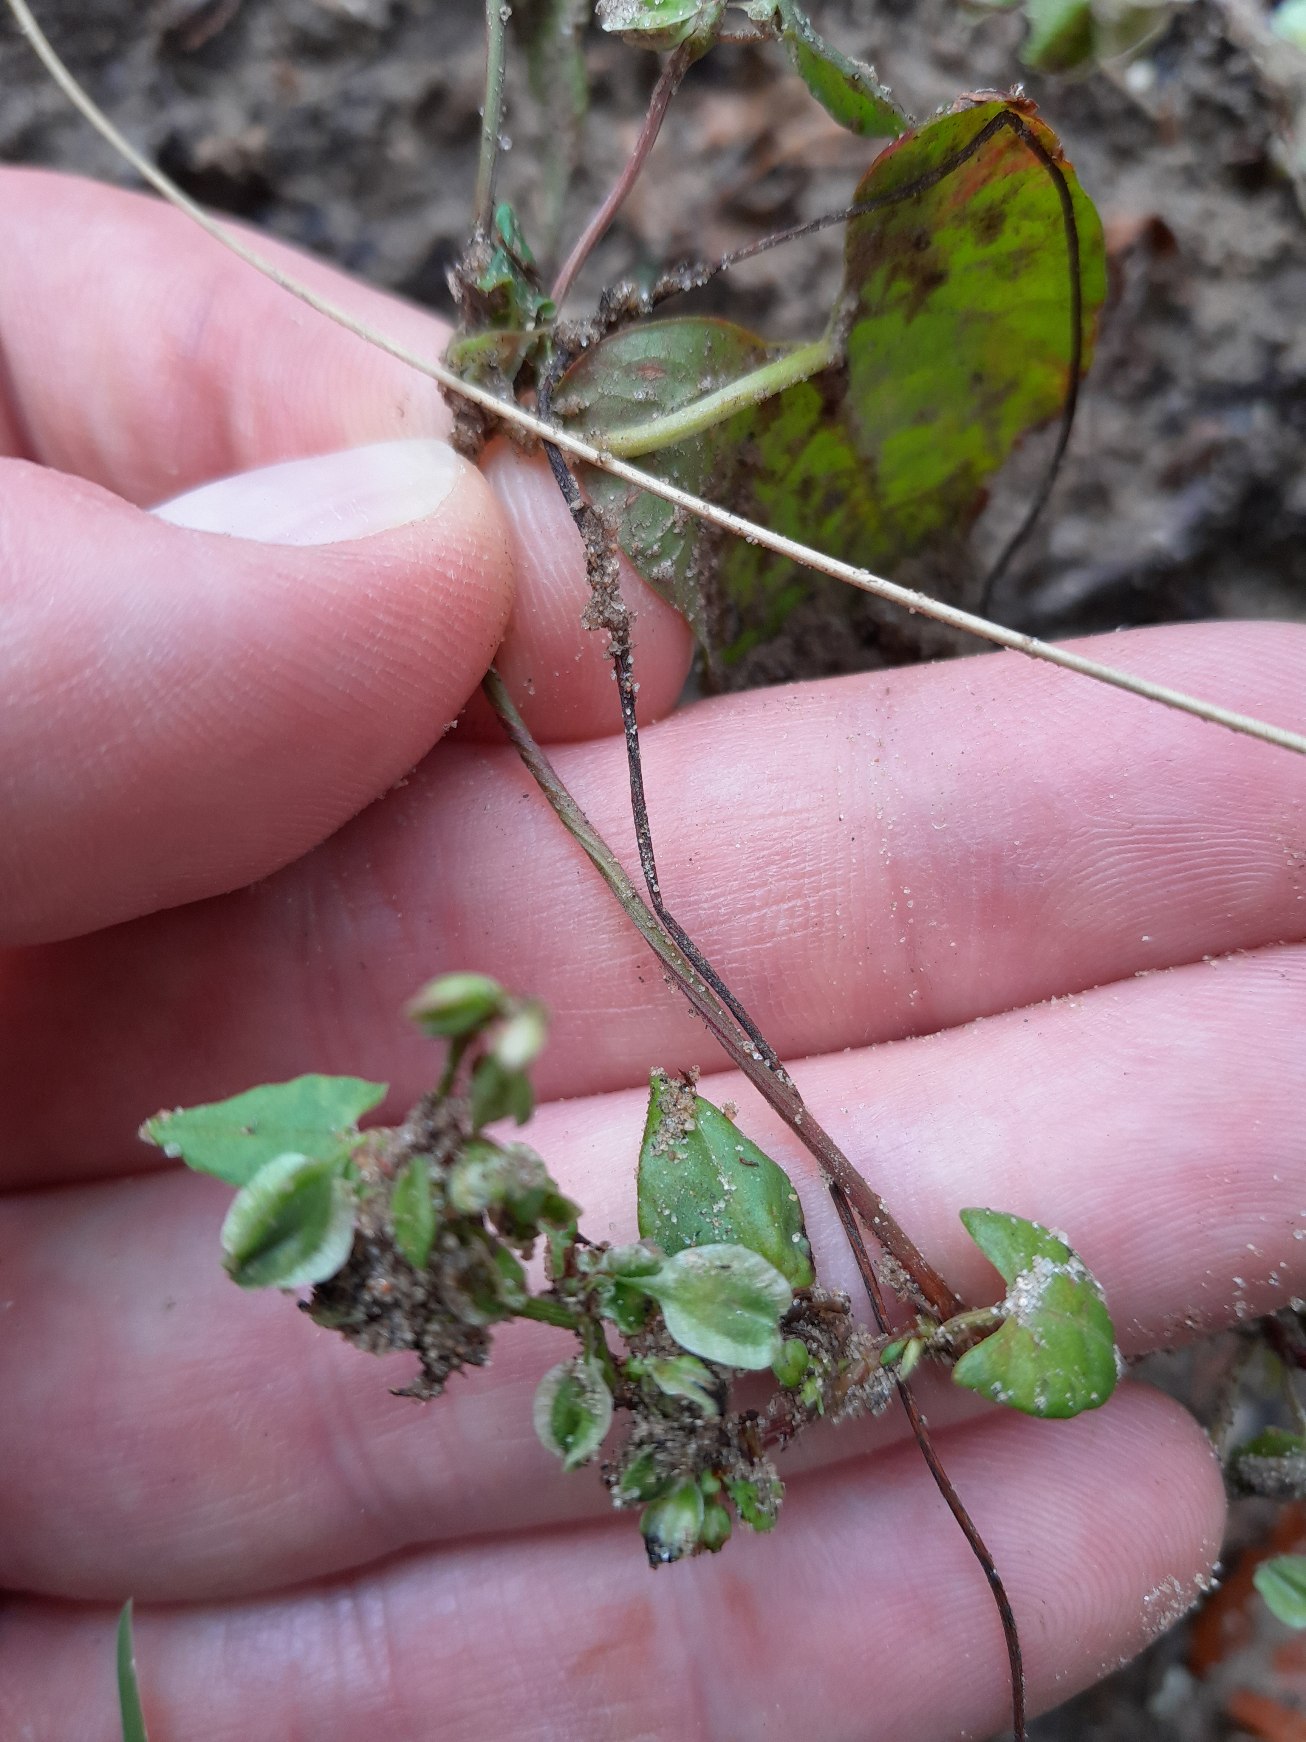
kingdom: Plantae
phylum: Tracheophyta
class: Magnoliopsida
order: Caryophyllales
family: Polygonaceae
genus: Fallopia
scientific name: Fallopia dumetorum
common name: Vinge-pileurt
